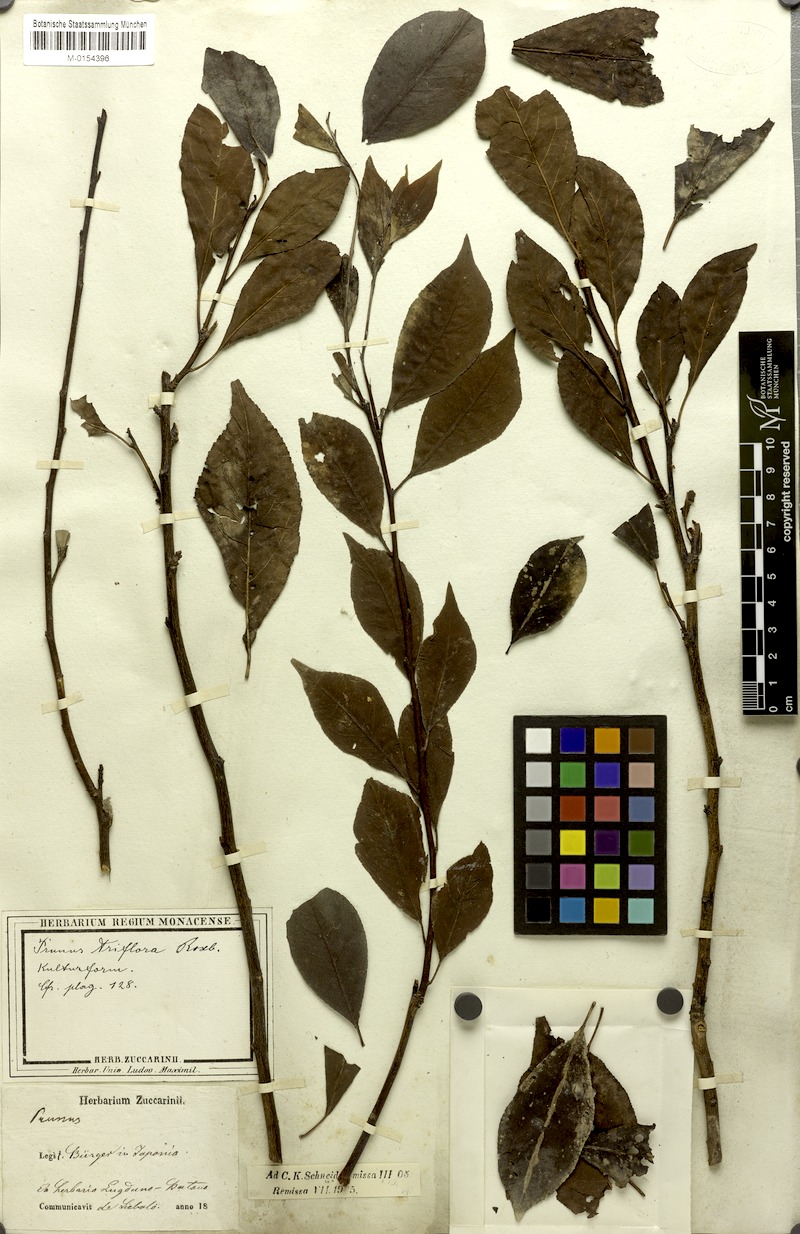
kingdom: Plantae
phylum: Tracheophyta
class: Magnoliopsida
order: Rosales
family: Rosaceae
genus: Prunus
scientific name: Prunus salicina
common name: Asian plum
